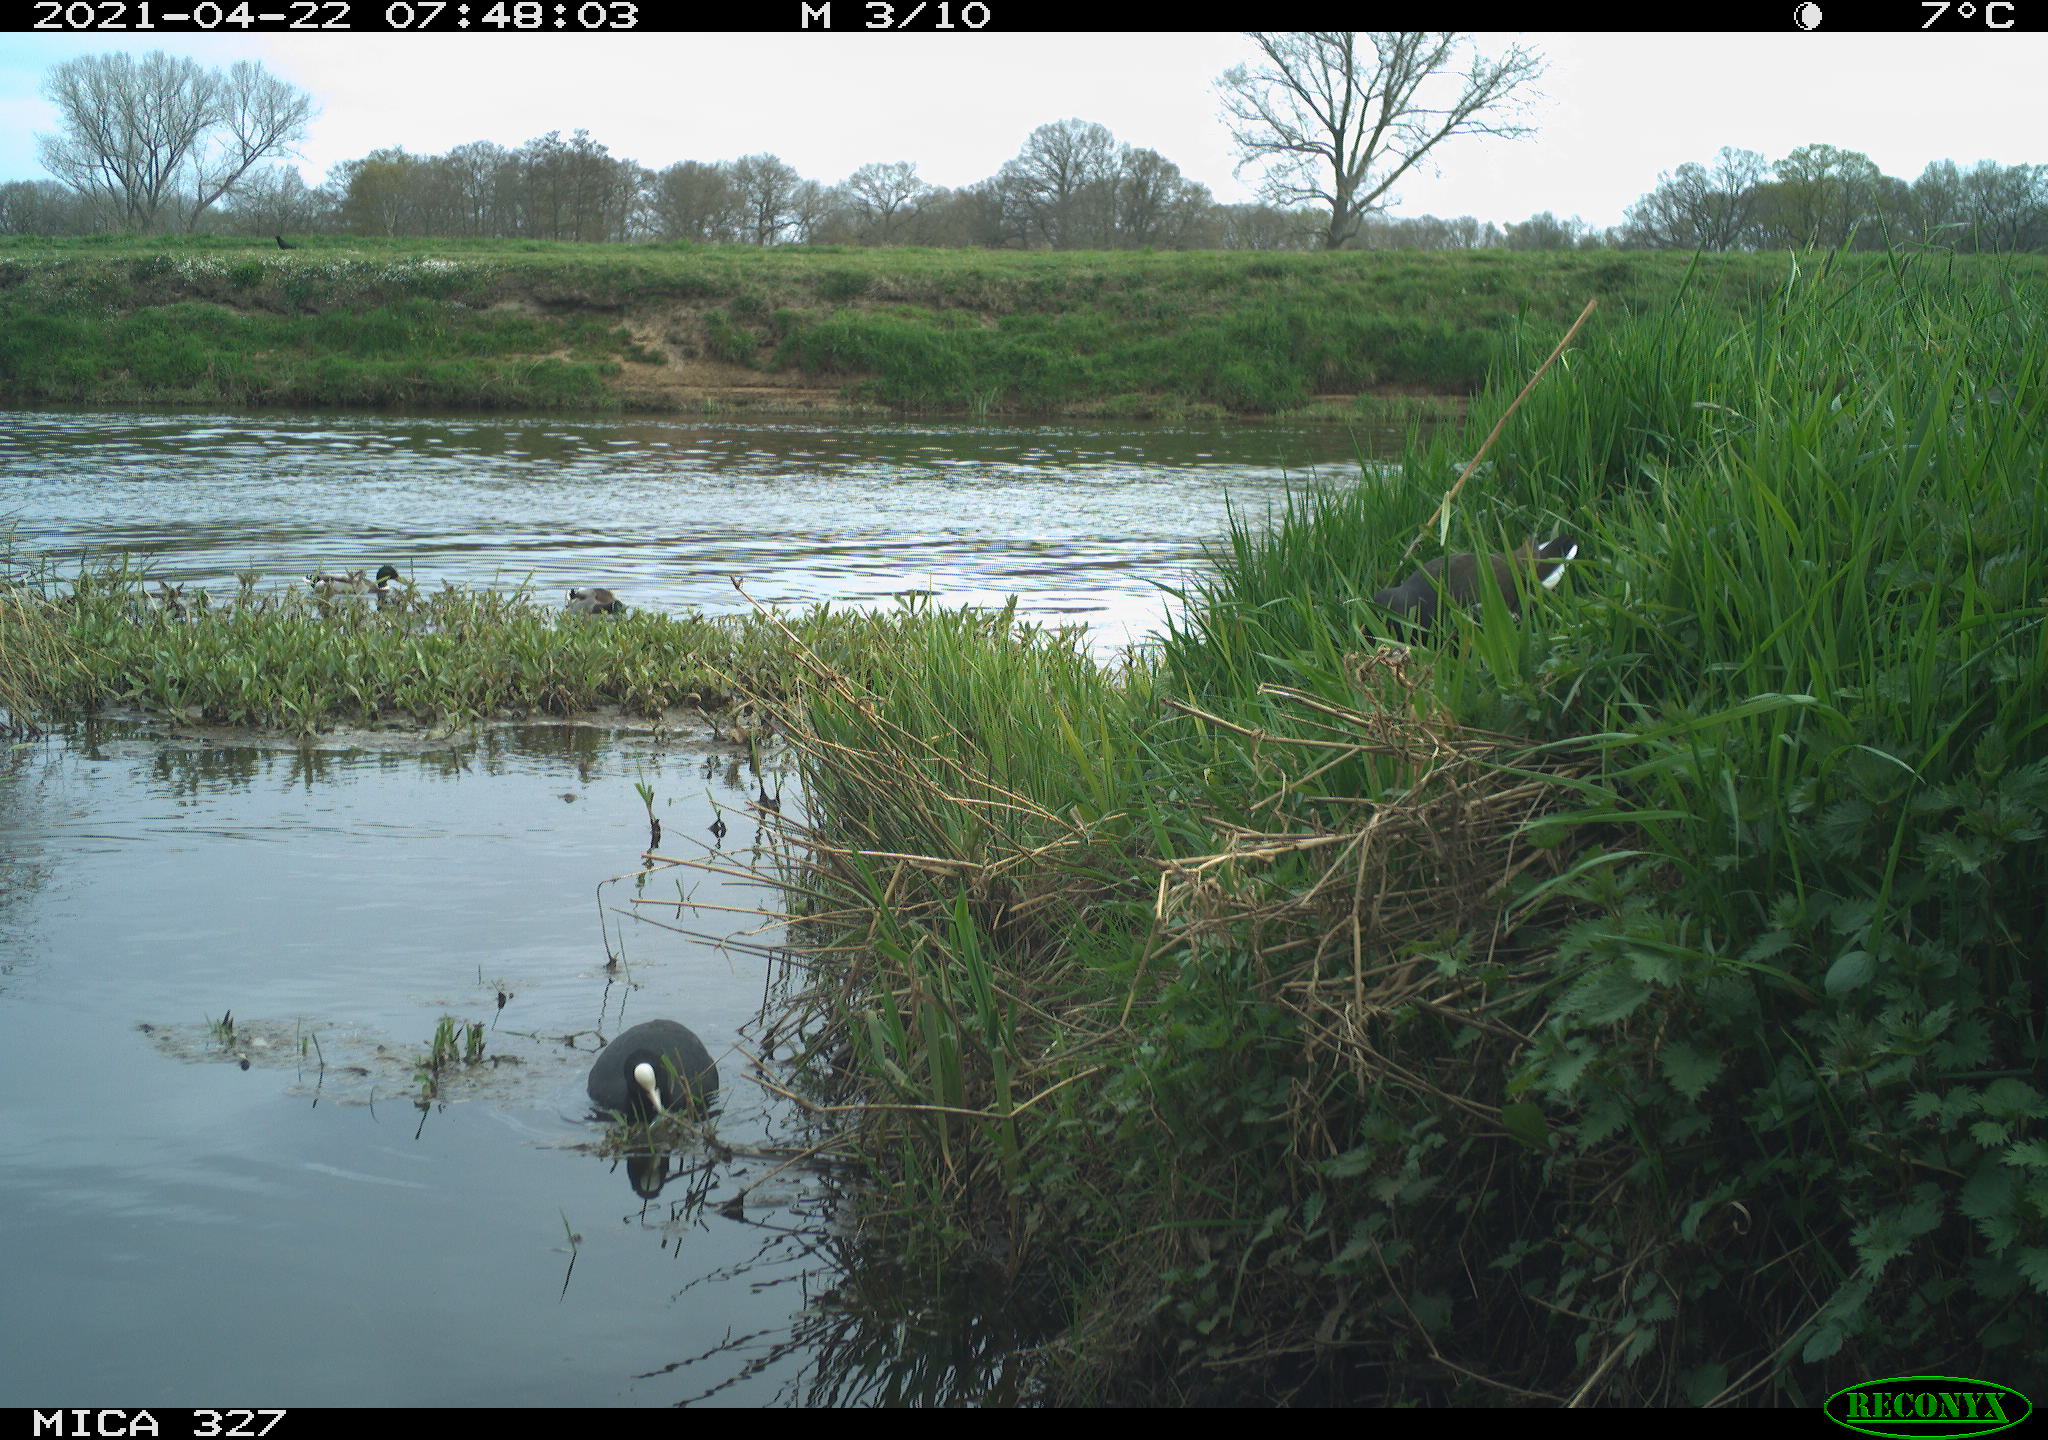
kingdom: Animalia
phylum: Chordata
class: Aves
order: Gruiformes
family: Rallidae
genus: Fulica
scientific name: Fulica atra
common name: Eurasian coot
